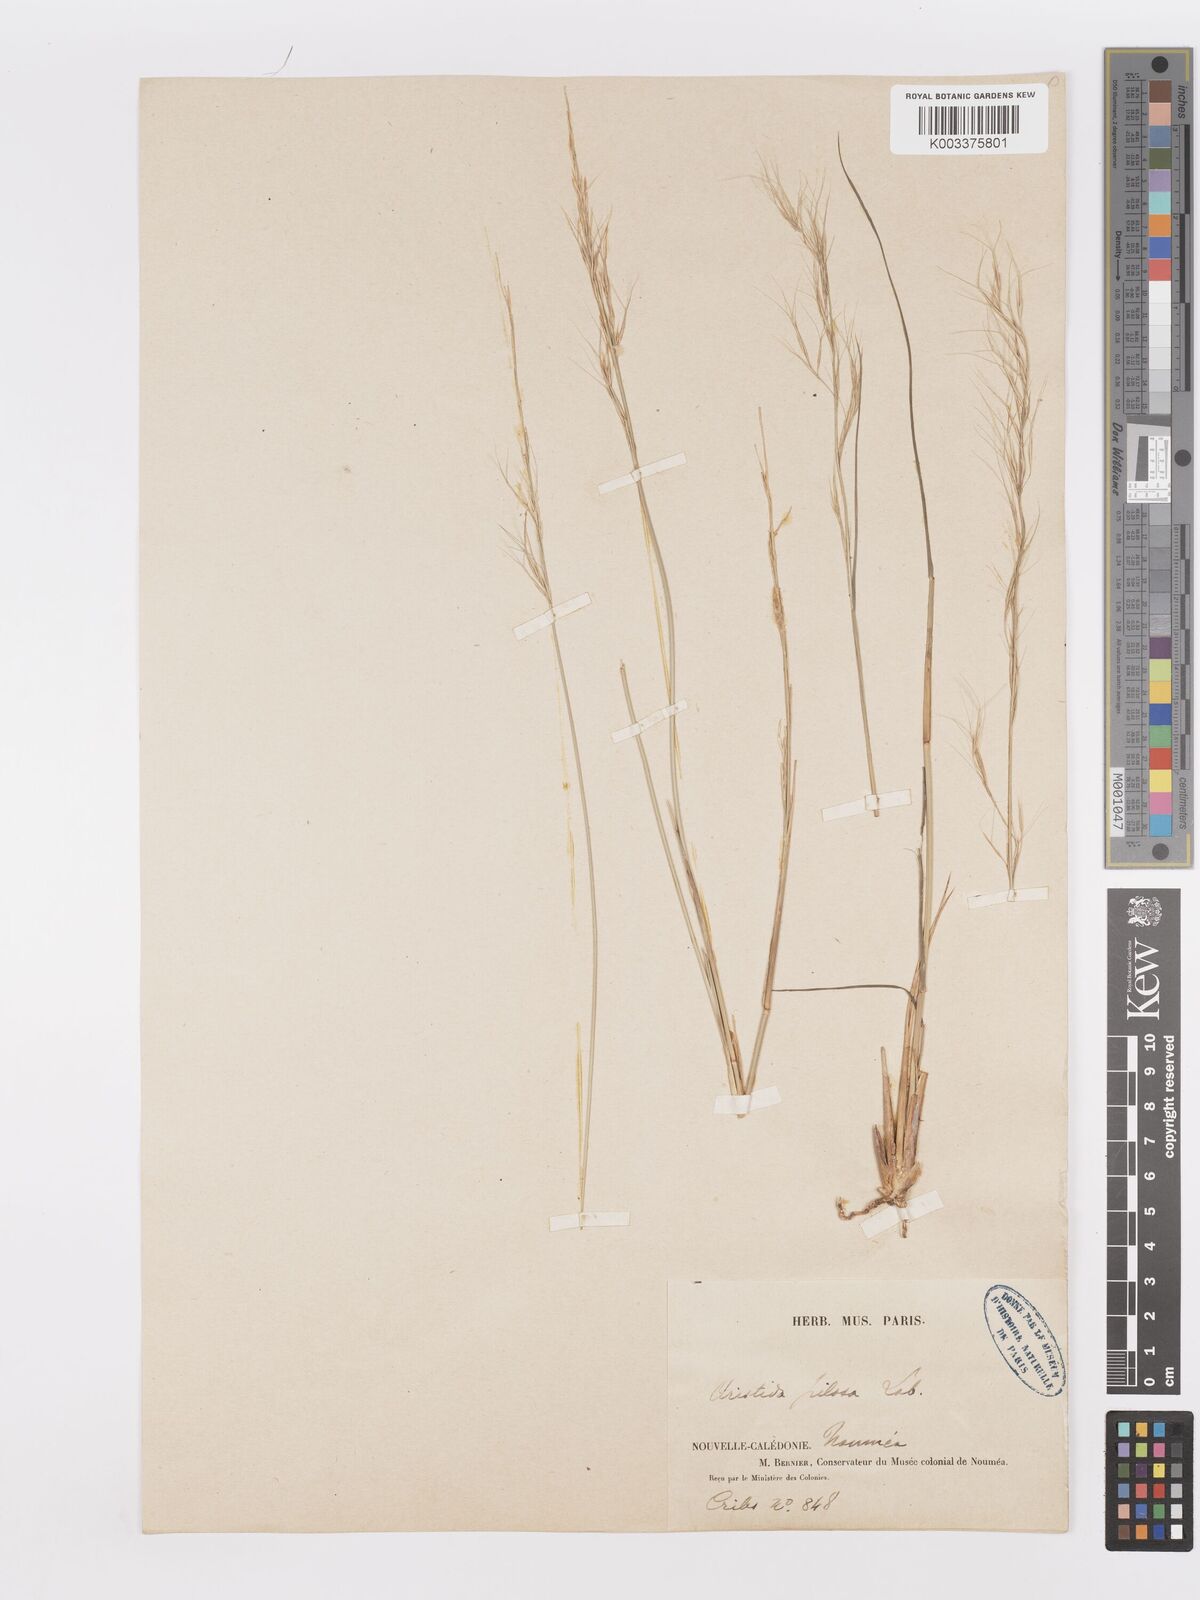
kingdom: Plantae
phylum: Tracheophyta
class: Liliopsida
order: Poales
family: Poaceae
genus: Aristida
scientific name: Aristida ramosa
